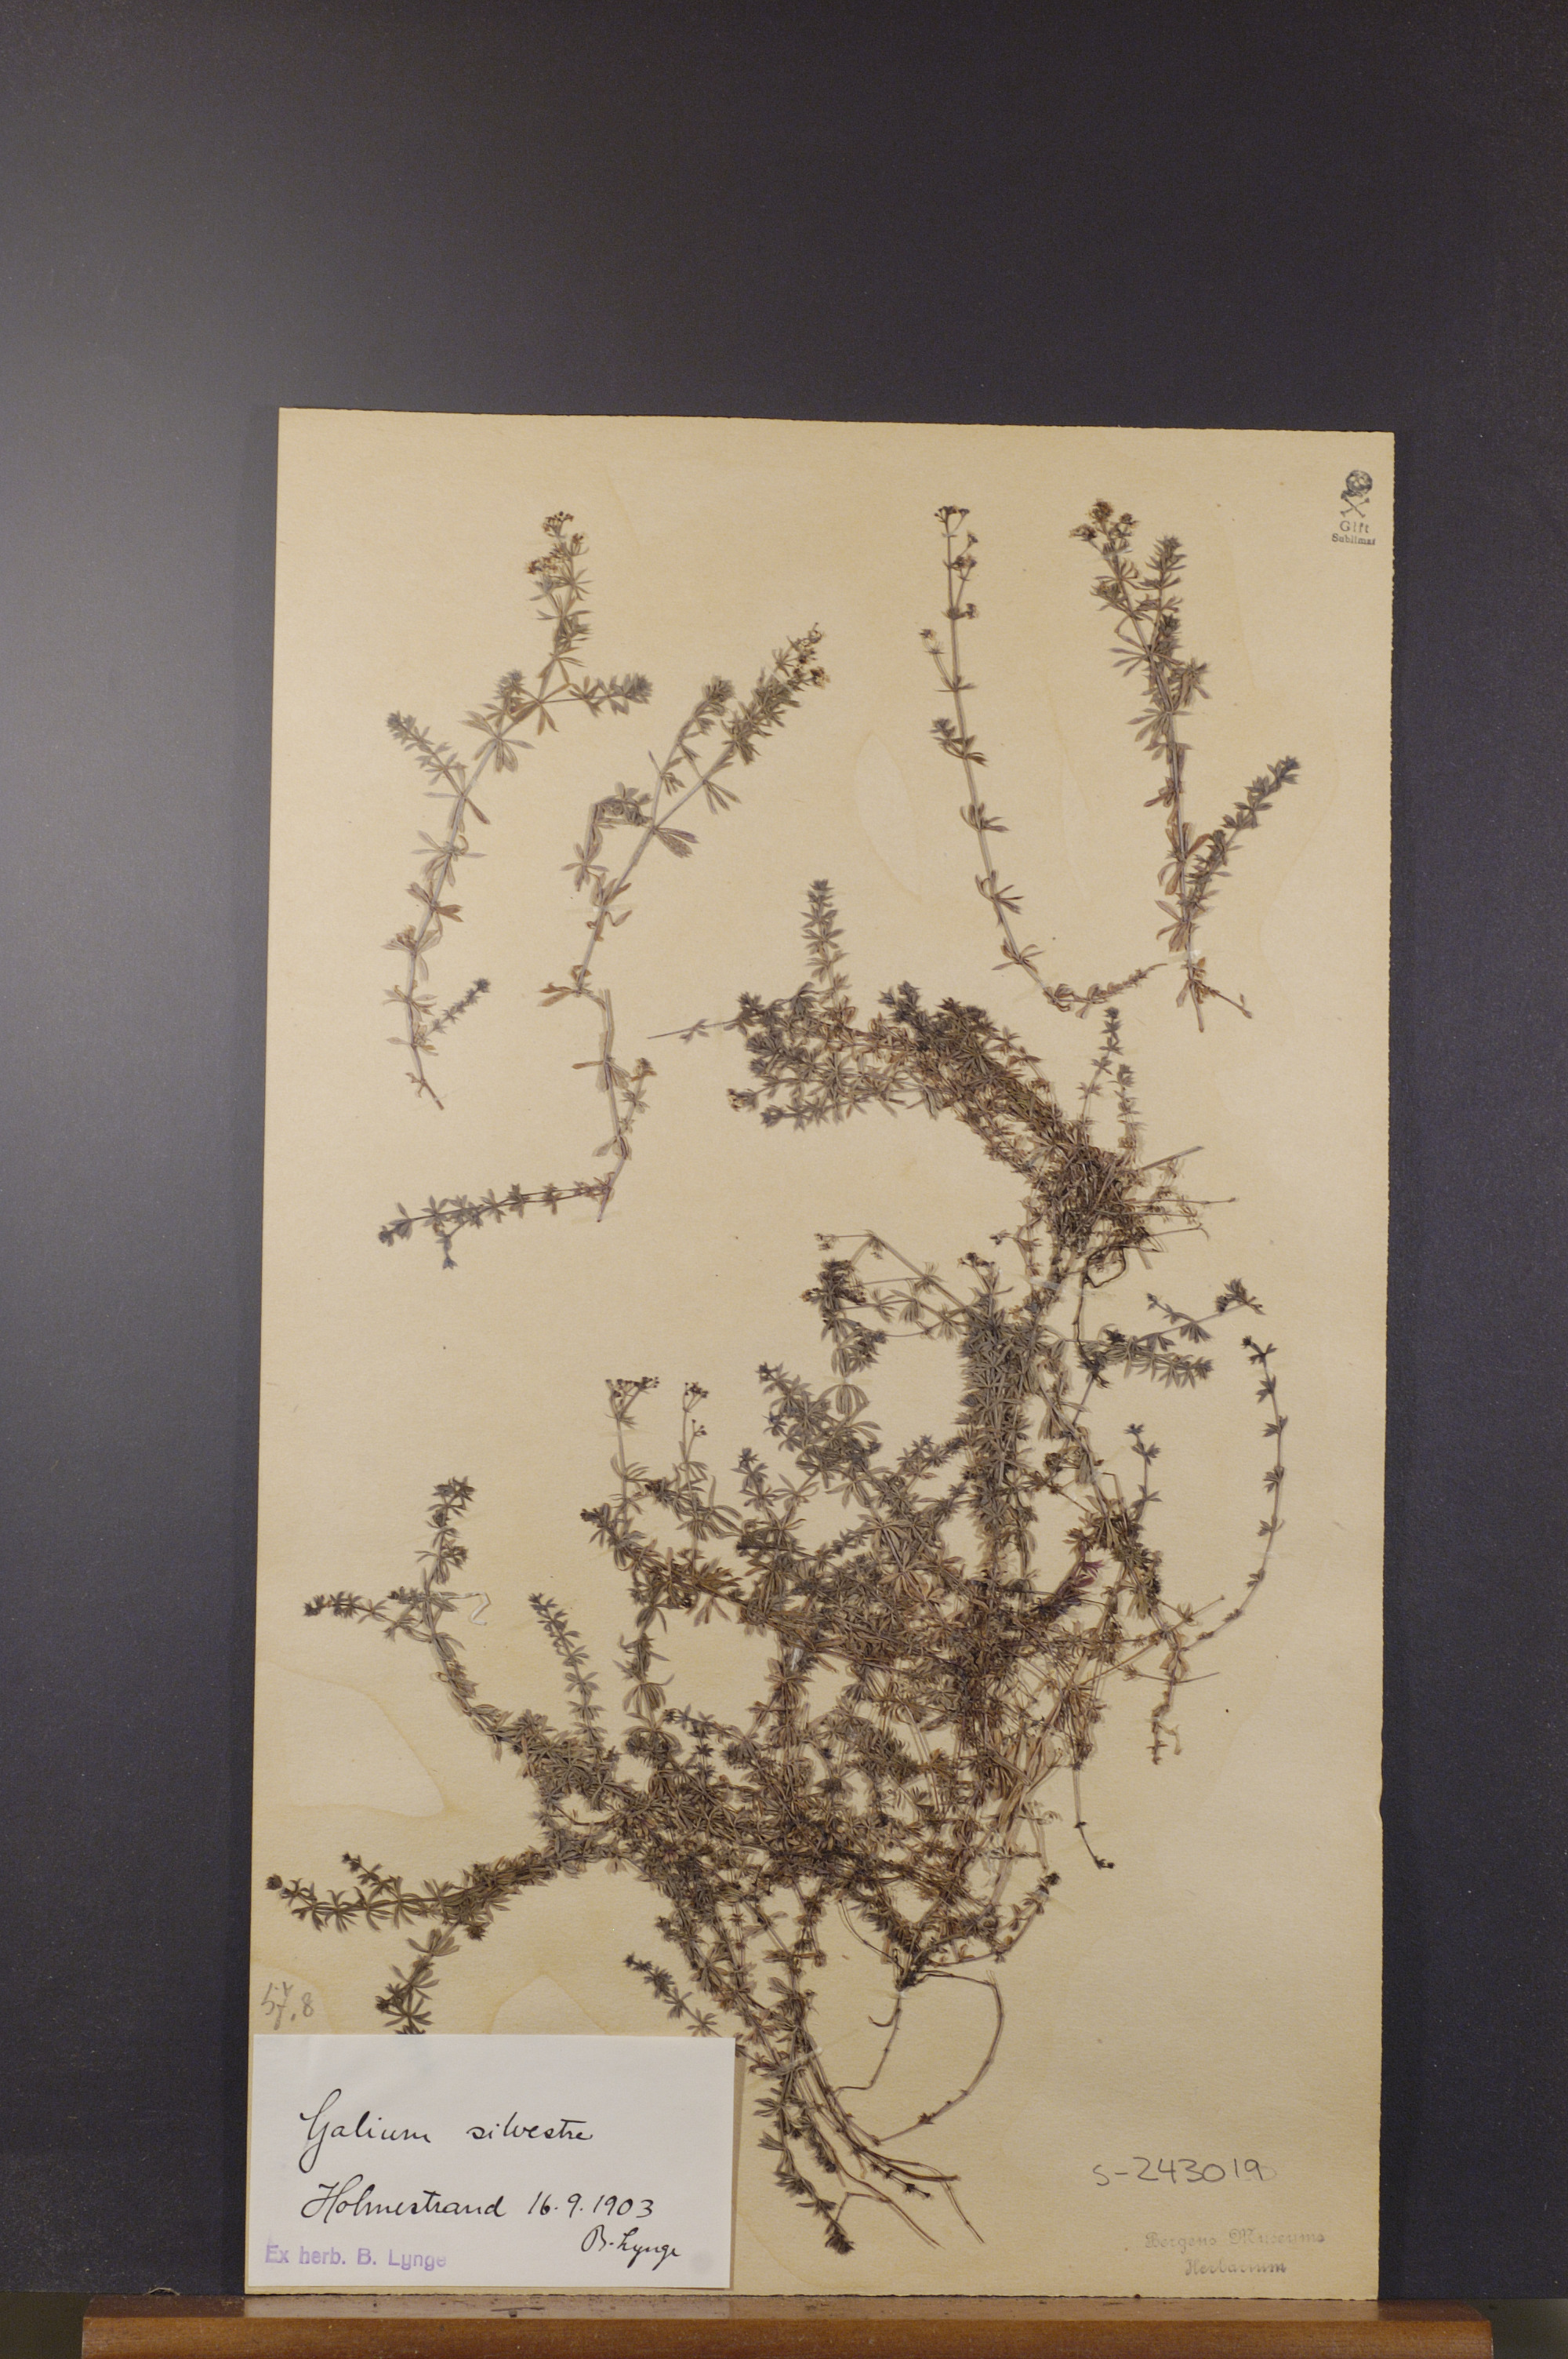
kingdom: Plantae
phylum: Tracheophyta
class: Magnoliopsida
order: Gentianales
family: Rubiaceae
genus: Galium
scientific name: Galium pumilum
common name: Slender bedstraw
